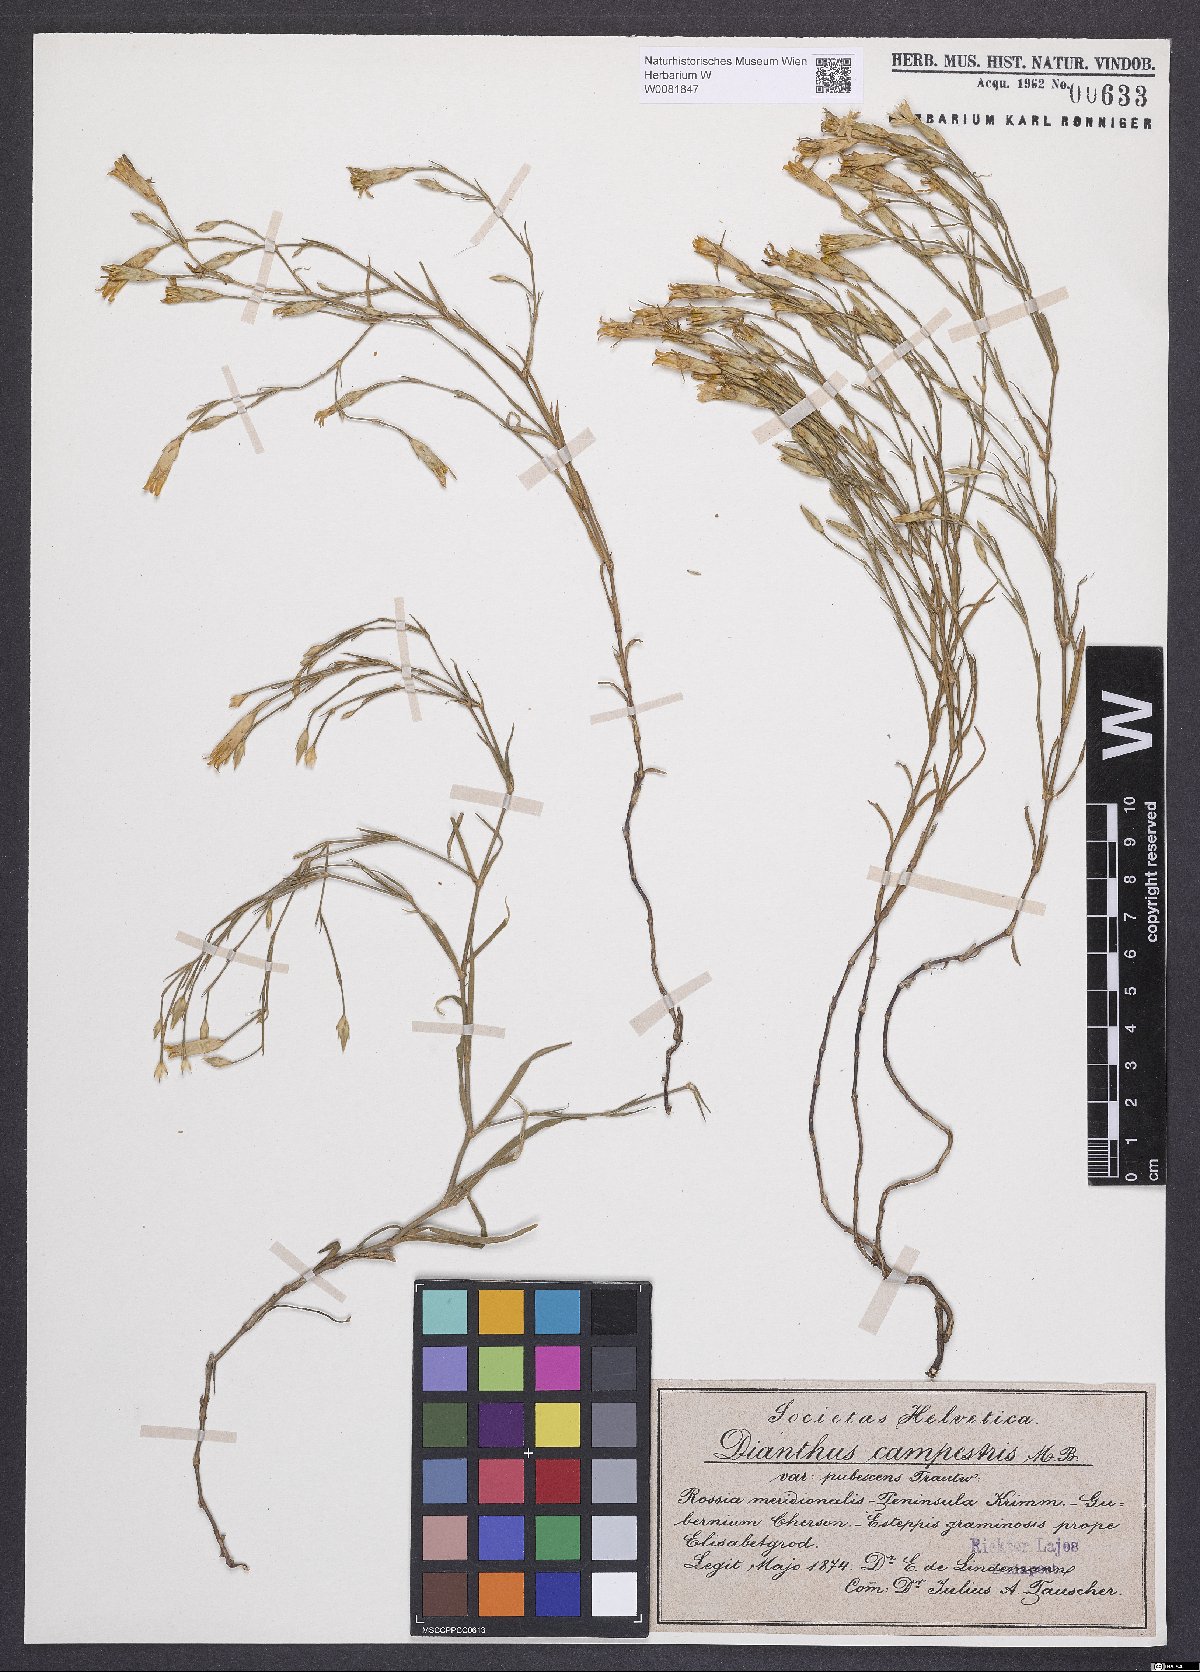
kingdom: Plantae
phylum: Tracheophyta
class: Magnoliopsida
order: Caryophyllales
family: Caryophyllaceae
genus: Dianthus
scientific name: Dianthus campestris
